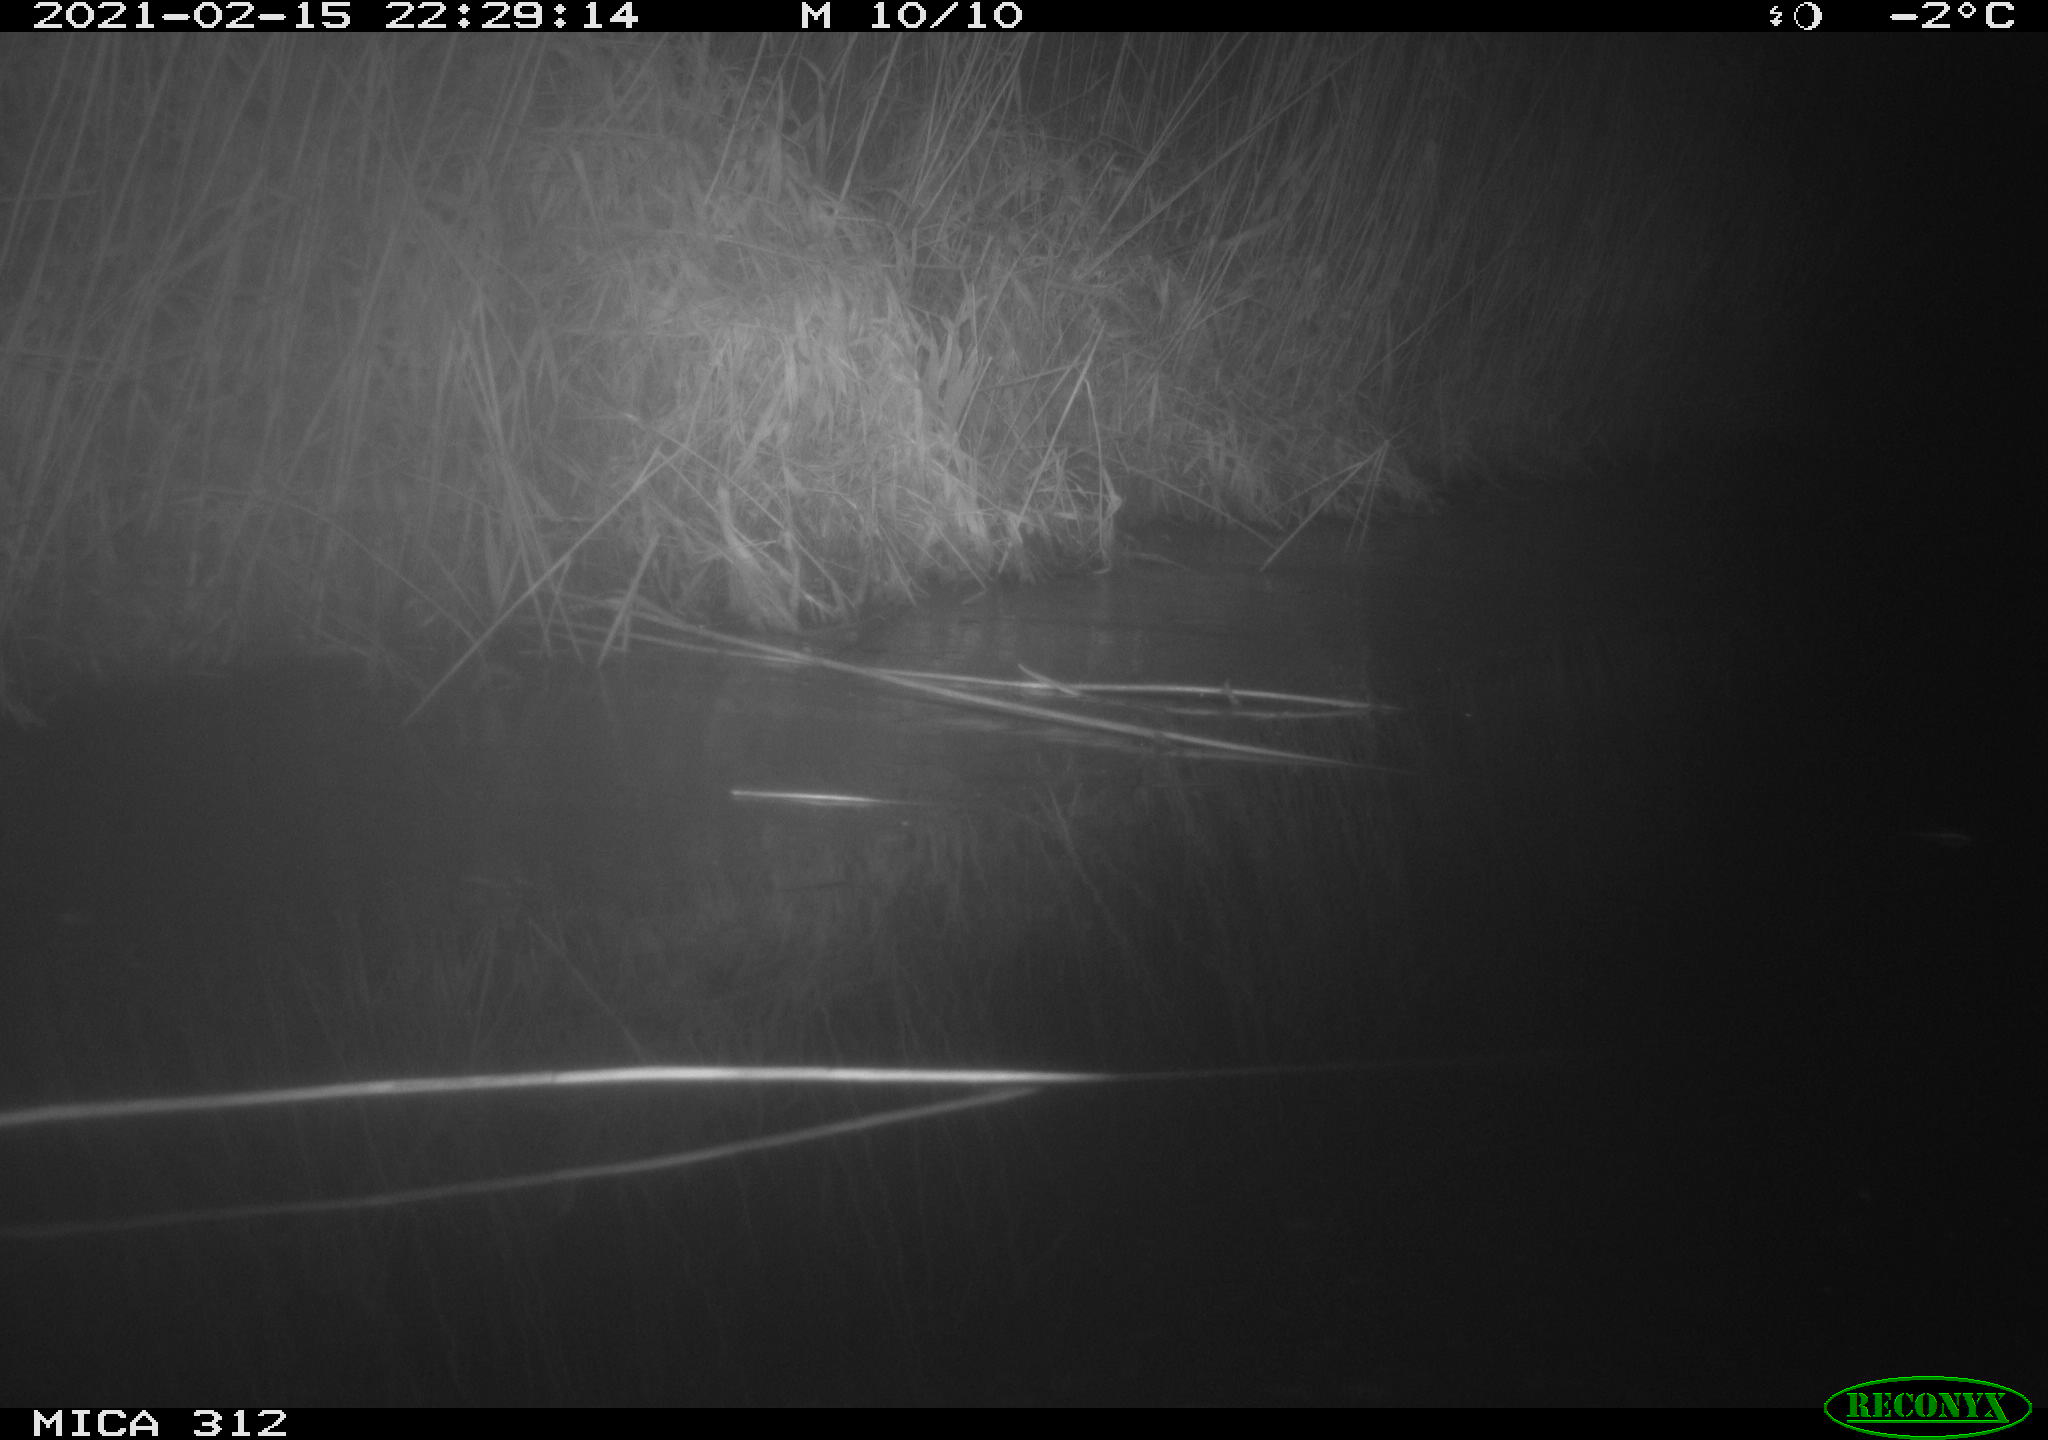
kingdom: Animalia
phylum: Chordata
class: Mammalia
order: Rodentia
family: Muridae
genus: Rattus
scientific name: Rattus norvegicus
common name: Brown rat
